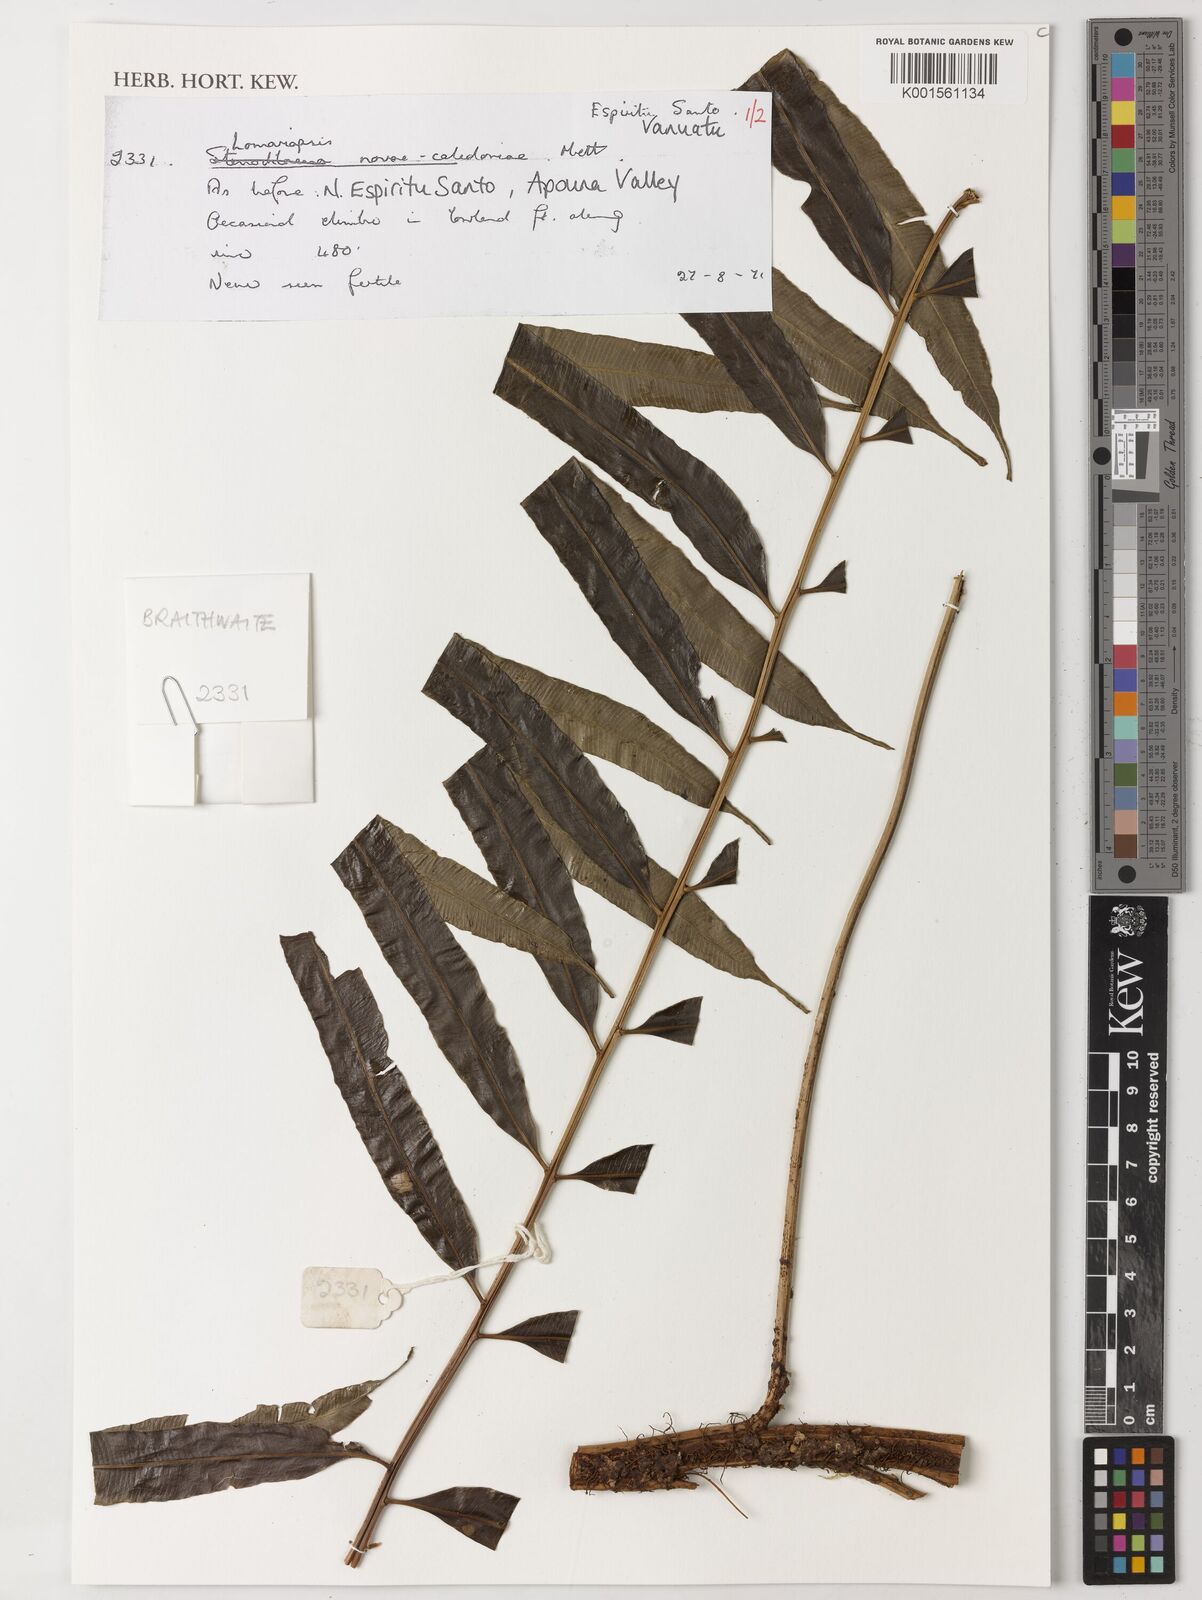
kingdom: Plantae
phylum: Tracheophyta
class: Polypodiopsida
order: Polypodiales
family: Lomariopsidaceae
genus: Lomariopsis
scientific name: Lomariopsis novae-caledoniae
